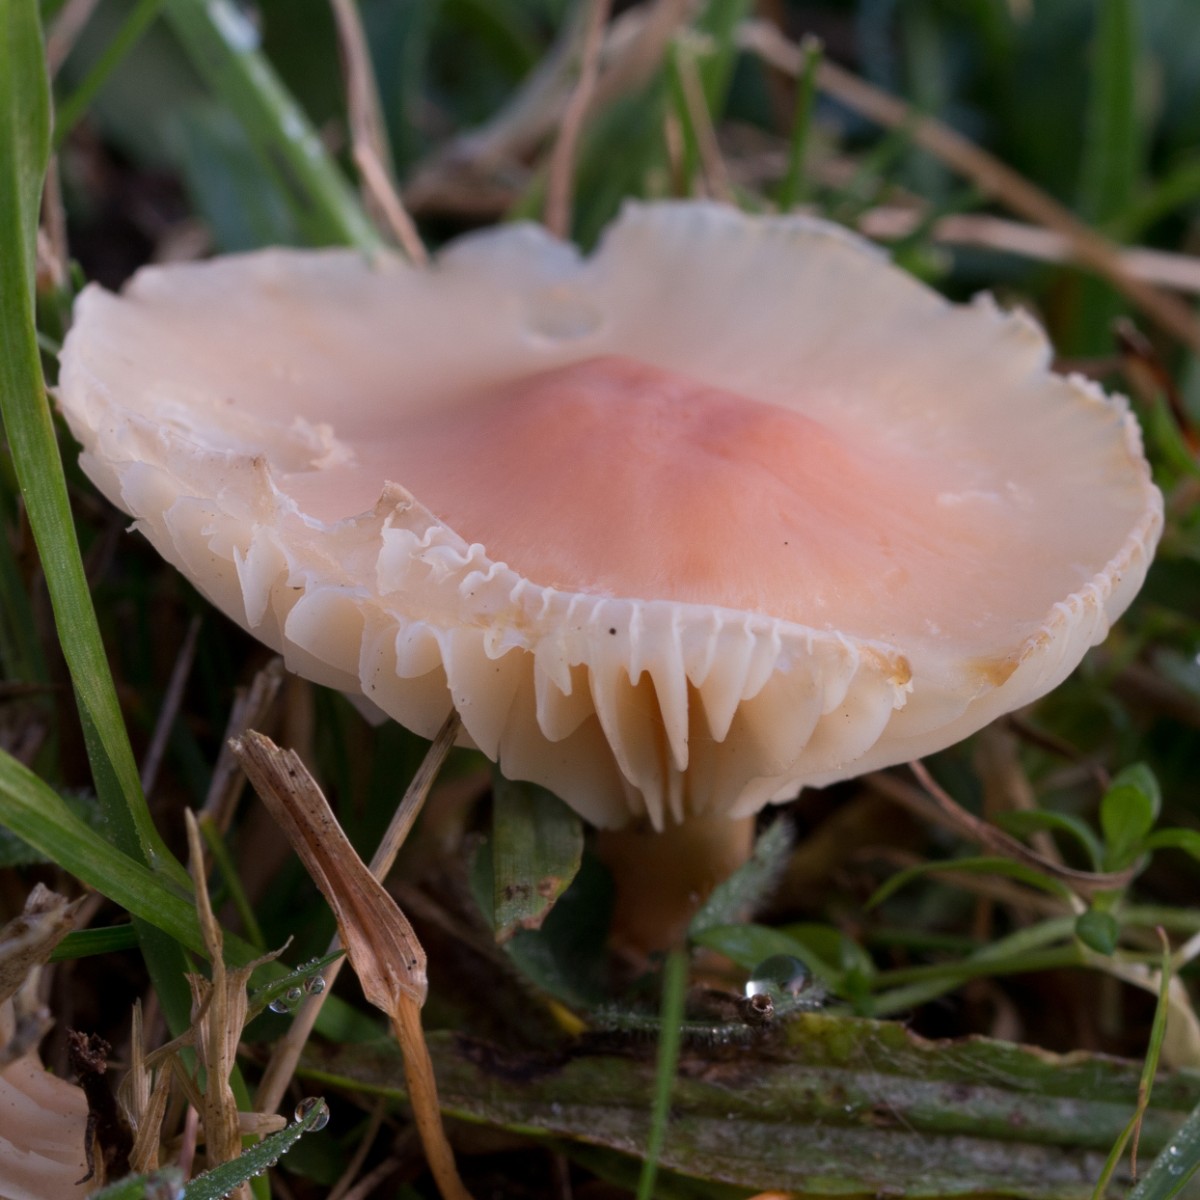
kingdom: Fungi
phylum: Basidiomycota
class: Agaricomycetes
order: Agaricales
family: Hygrophoraceae
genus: Cuphophyllus
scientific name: Cuphophyllus pratensis
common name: eng-vokshat
